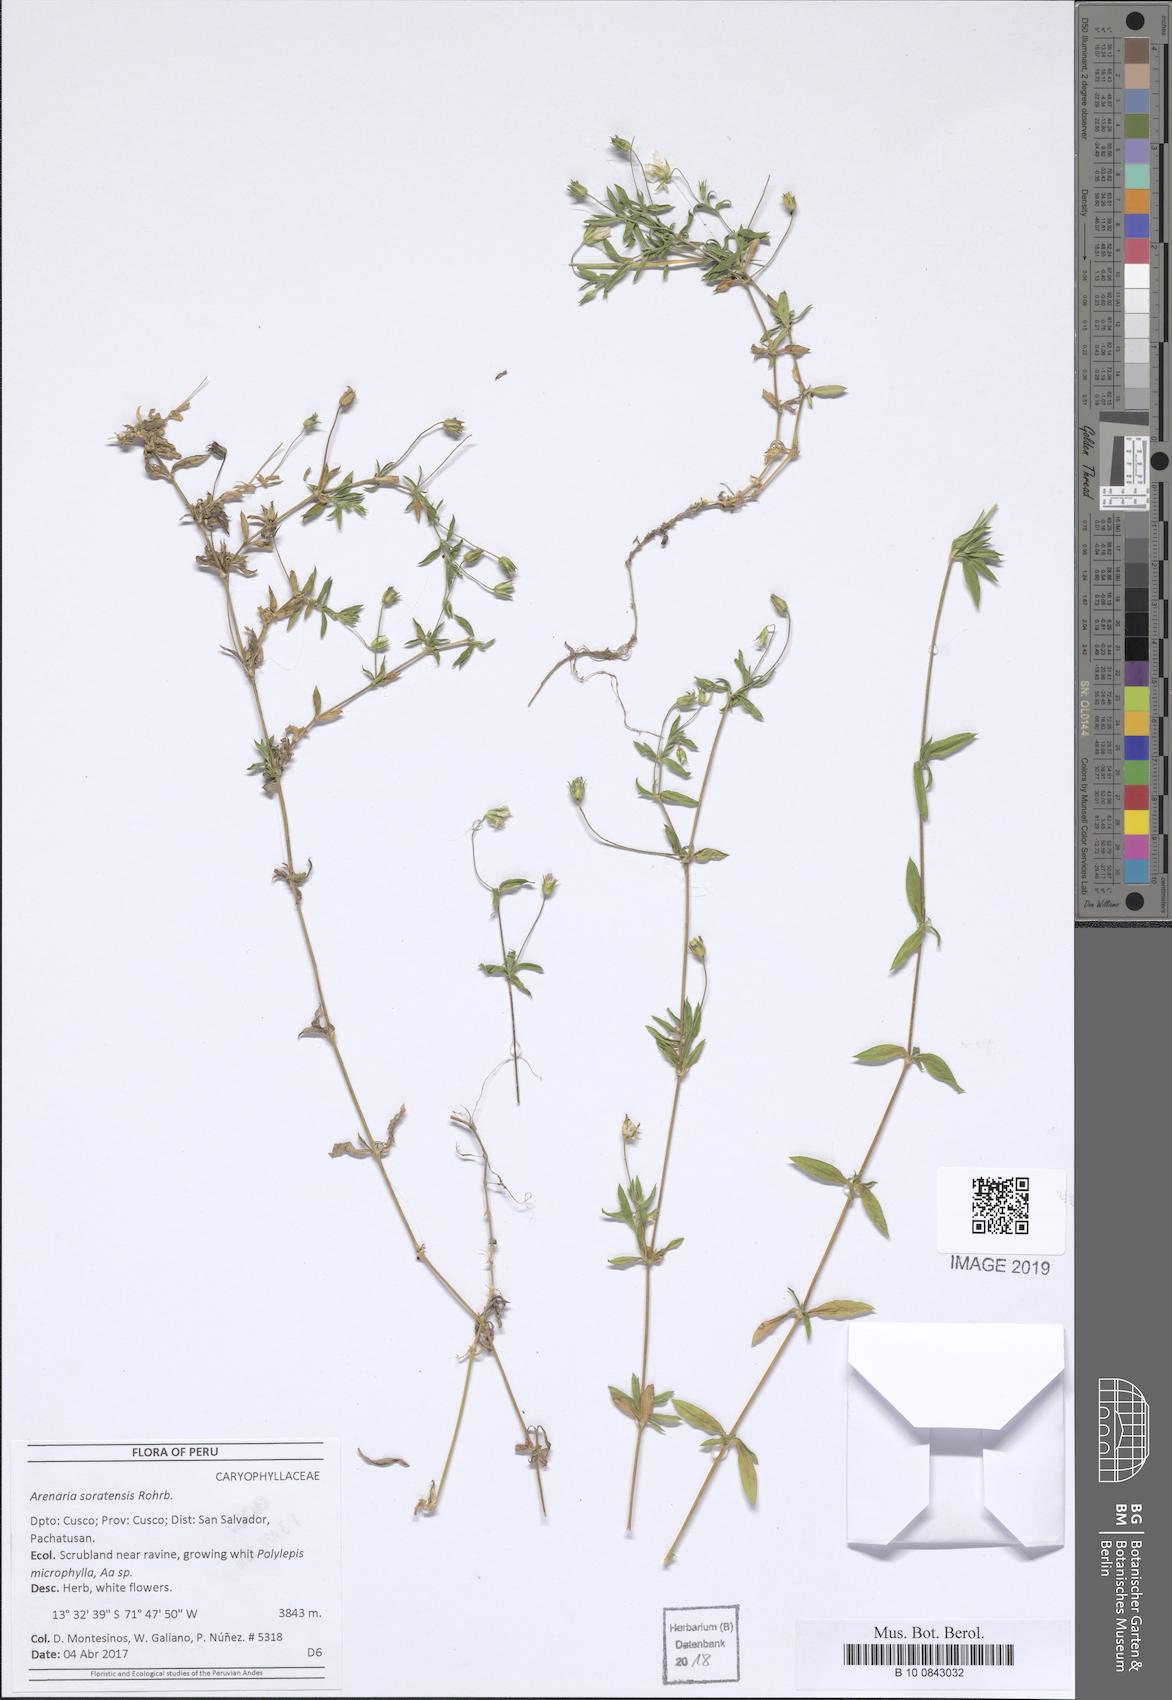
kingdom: Plantae
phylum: Tracheophyta
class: Magnoliopsida
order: Caryophyllales
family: Caryophyllaceae
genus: Arenaria
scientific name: Arenaria soratensis
